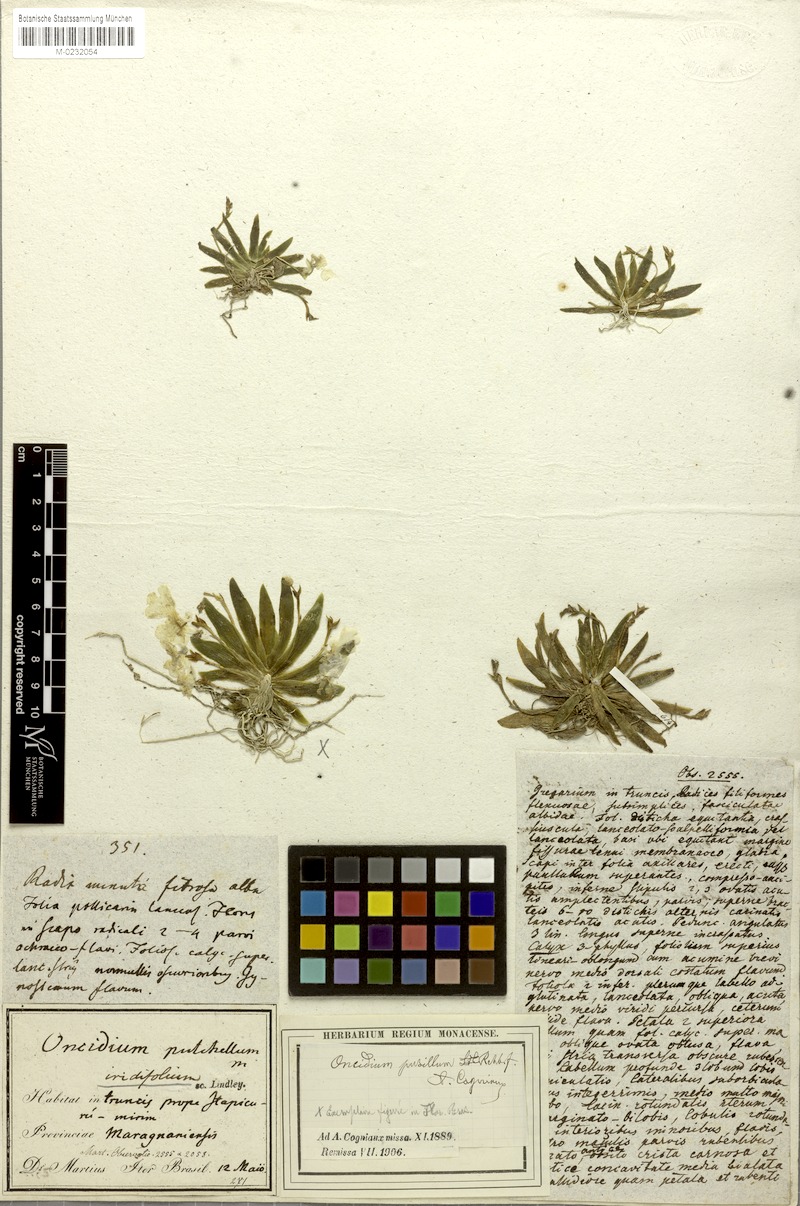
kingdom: Plantae
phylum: Tracheophyta
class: Liliopsida
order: Asparagales
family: Orchidaceae
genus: Erycina
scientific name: Erycina pusilla
